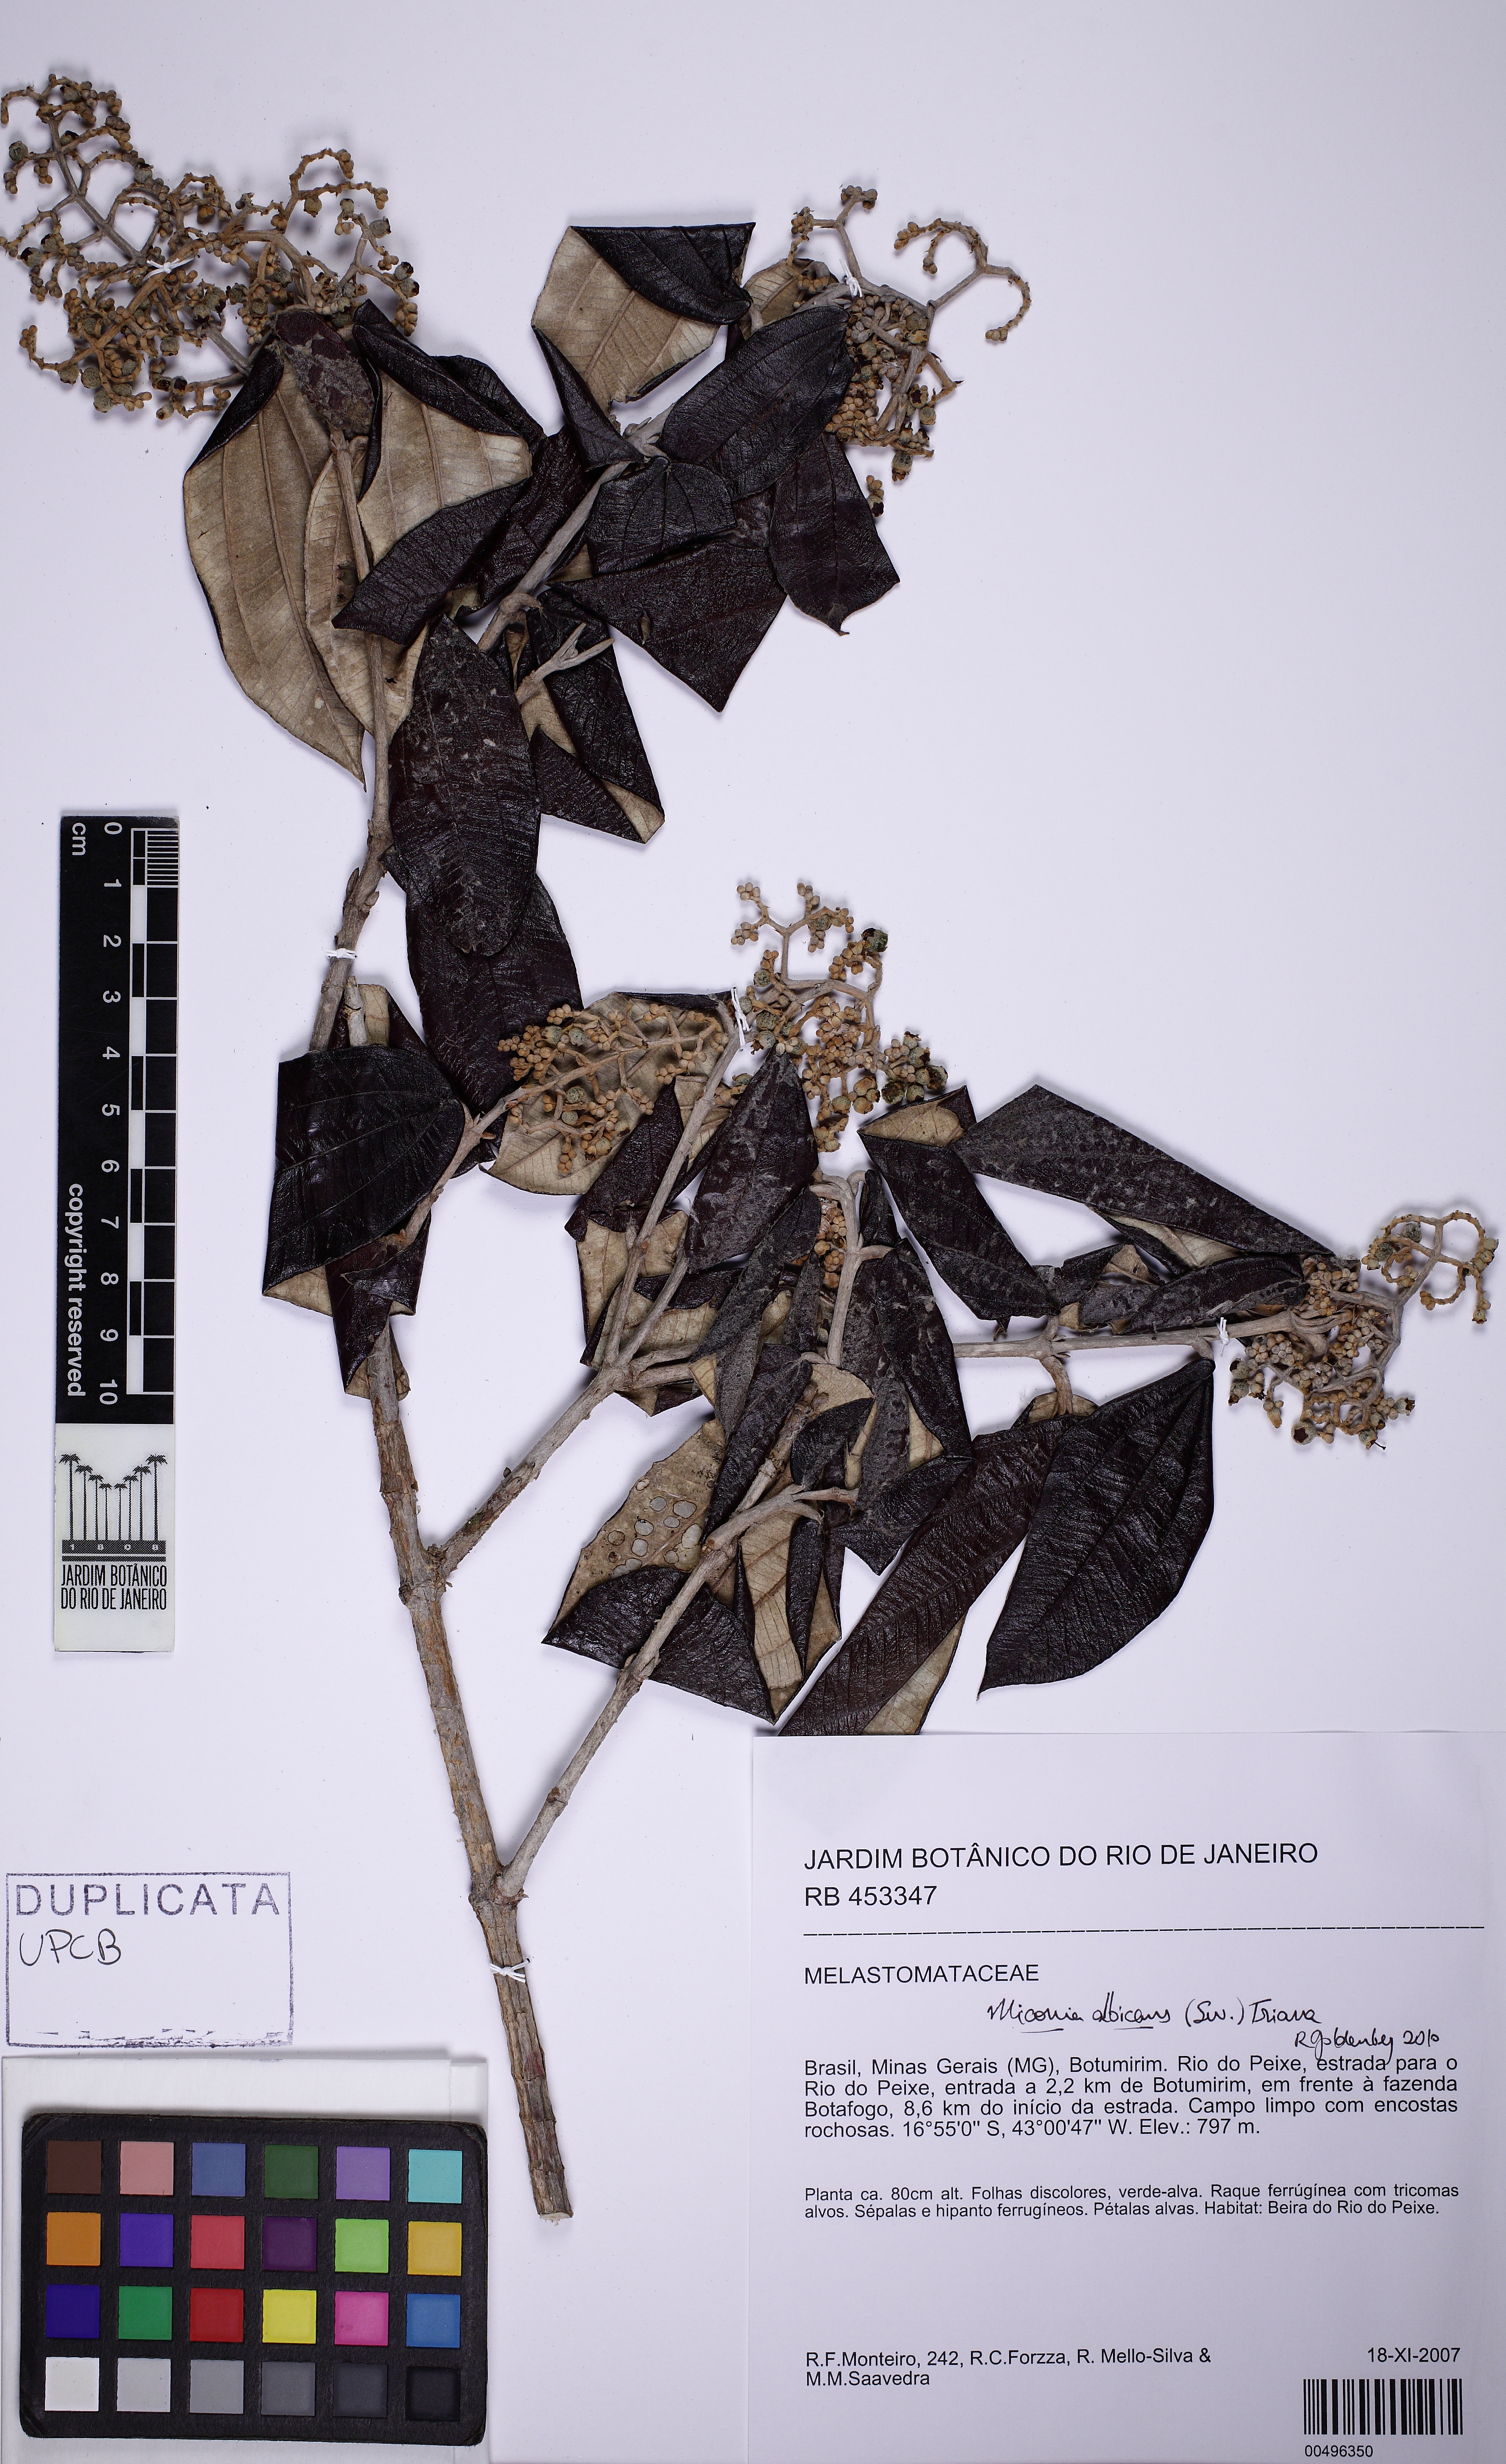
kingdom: Plantae
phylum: Tracheophyta
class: Magnoliopsida
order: Myrtales
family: Melastomataceae
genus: Miconia
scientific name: Miconia albicans
